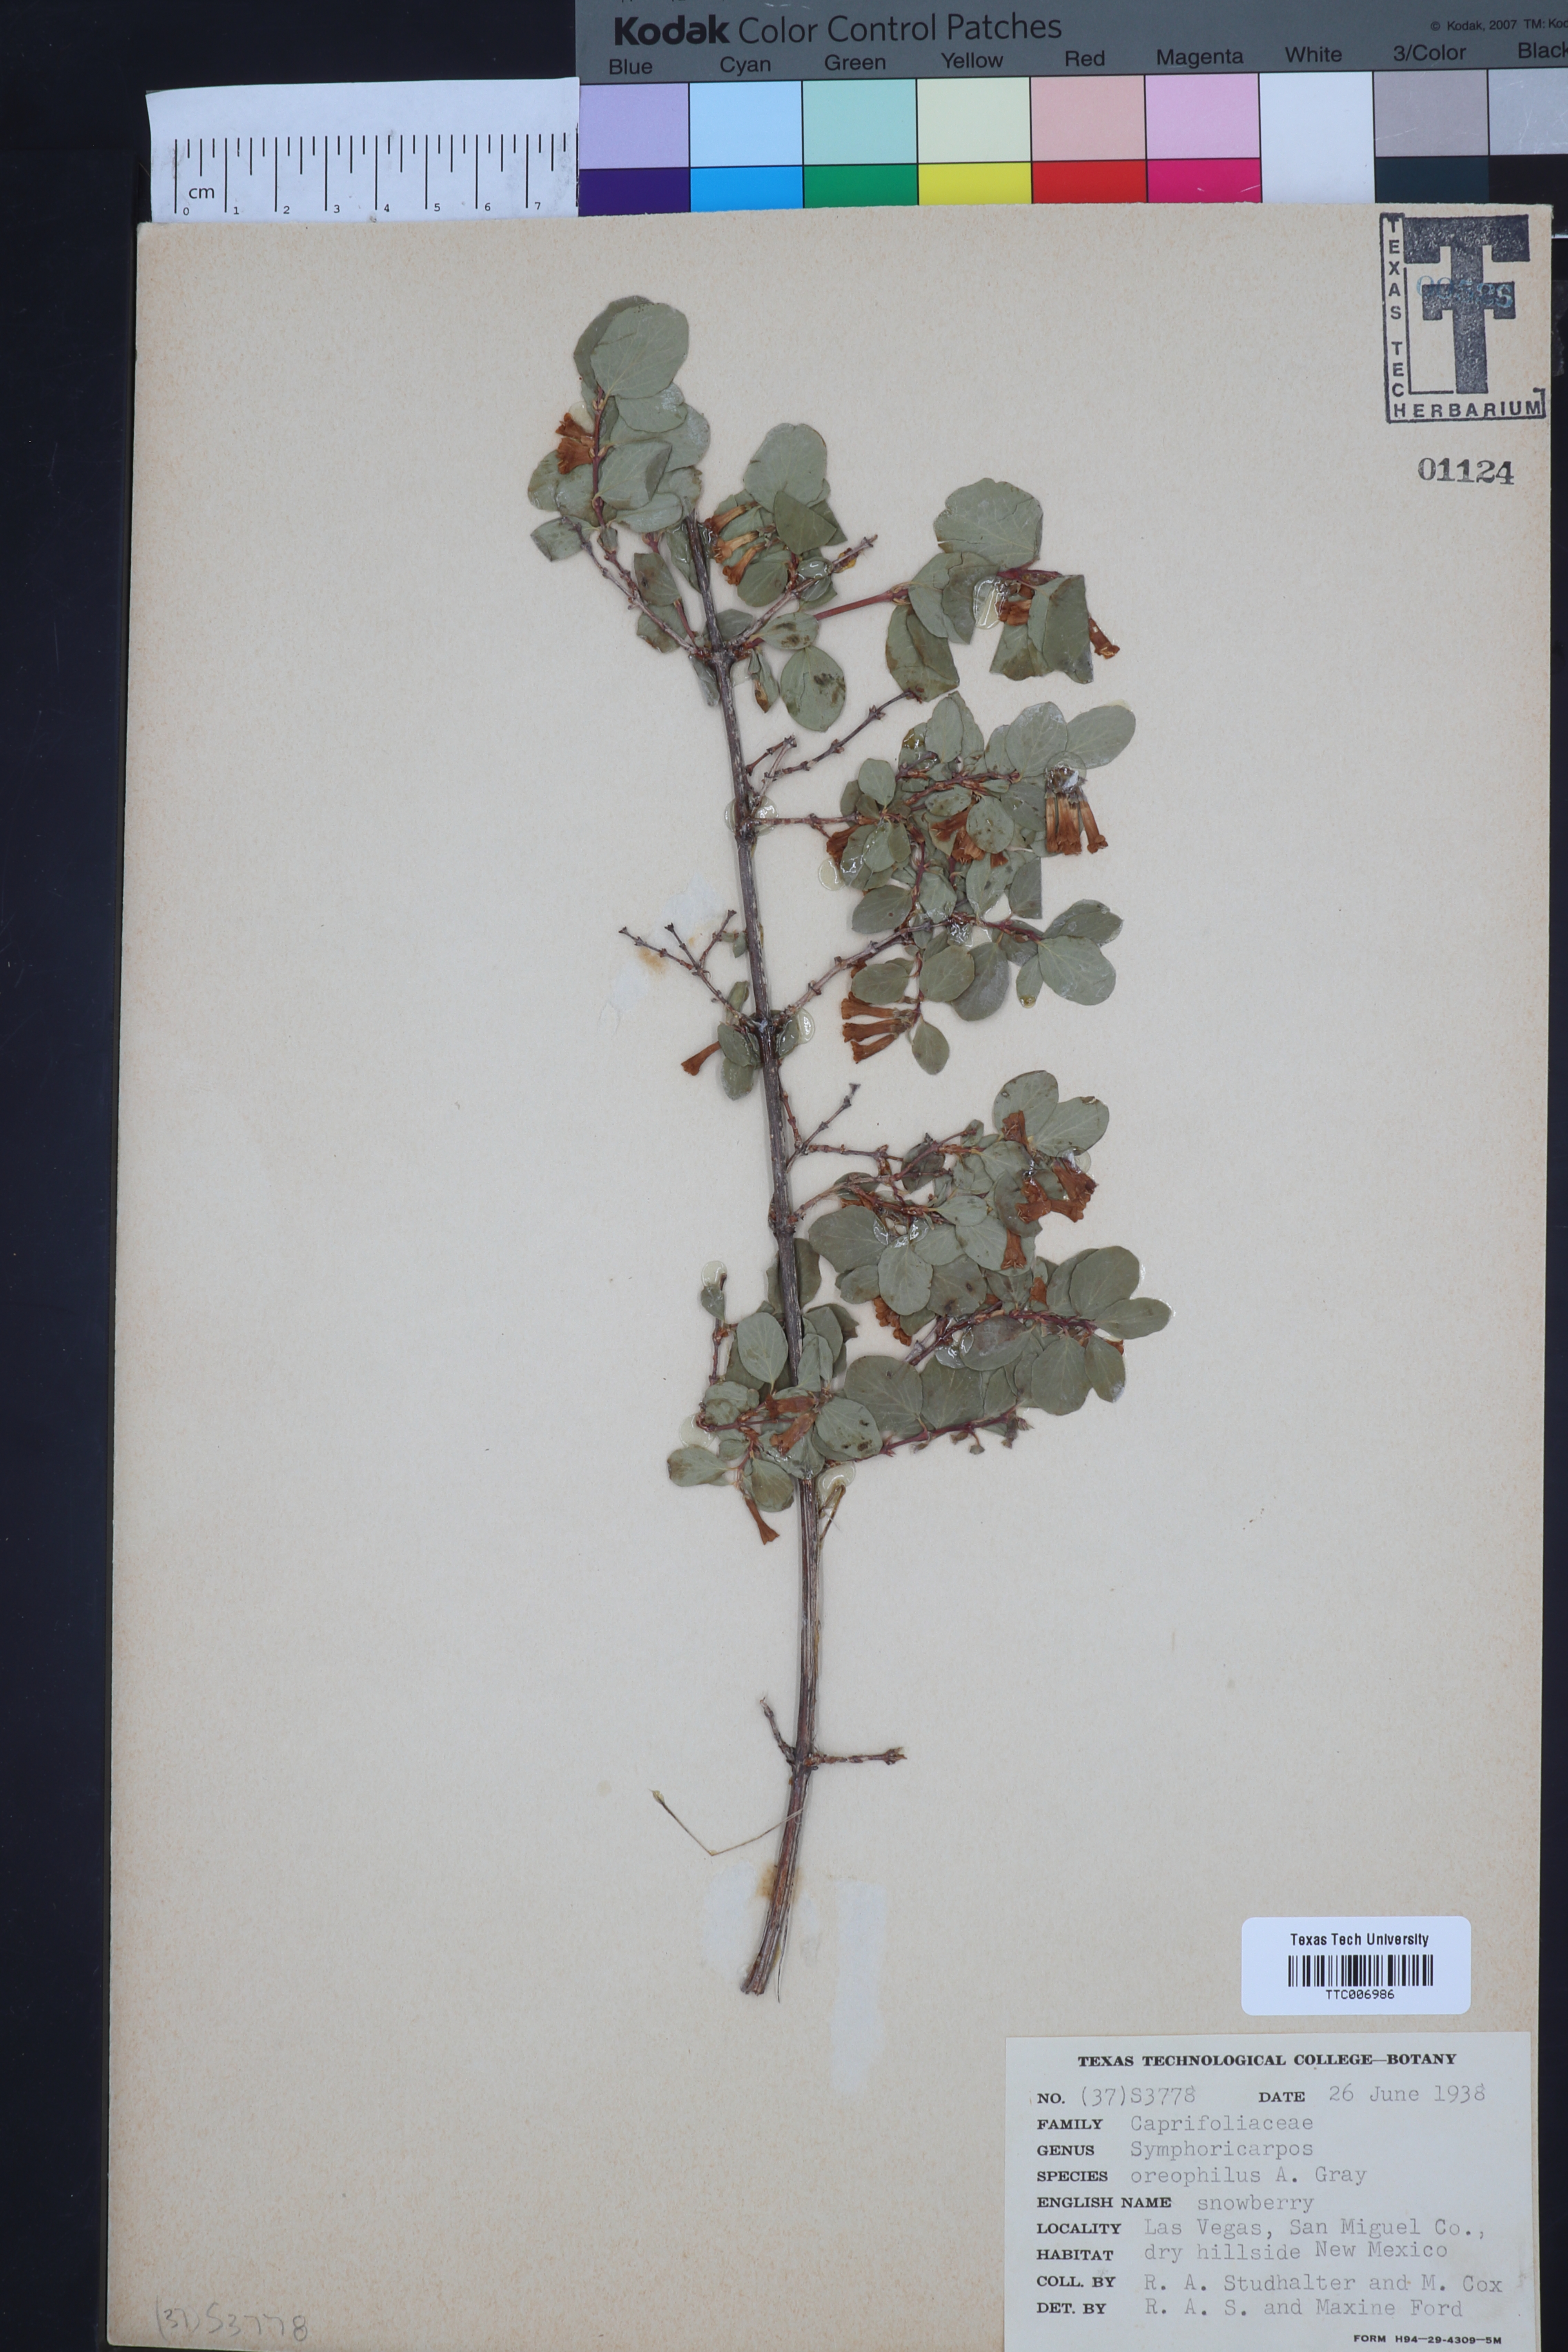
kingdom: Plantae
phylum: Tracheophyta
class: Magnoliopsida
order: Dipsacales
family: Caprifoliaceae
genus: Symphoricarpos
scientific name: Symphoricarpos oreophilus
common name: Mountain snowberry
